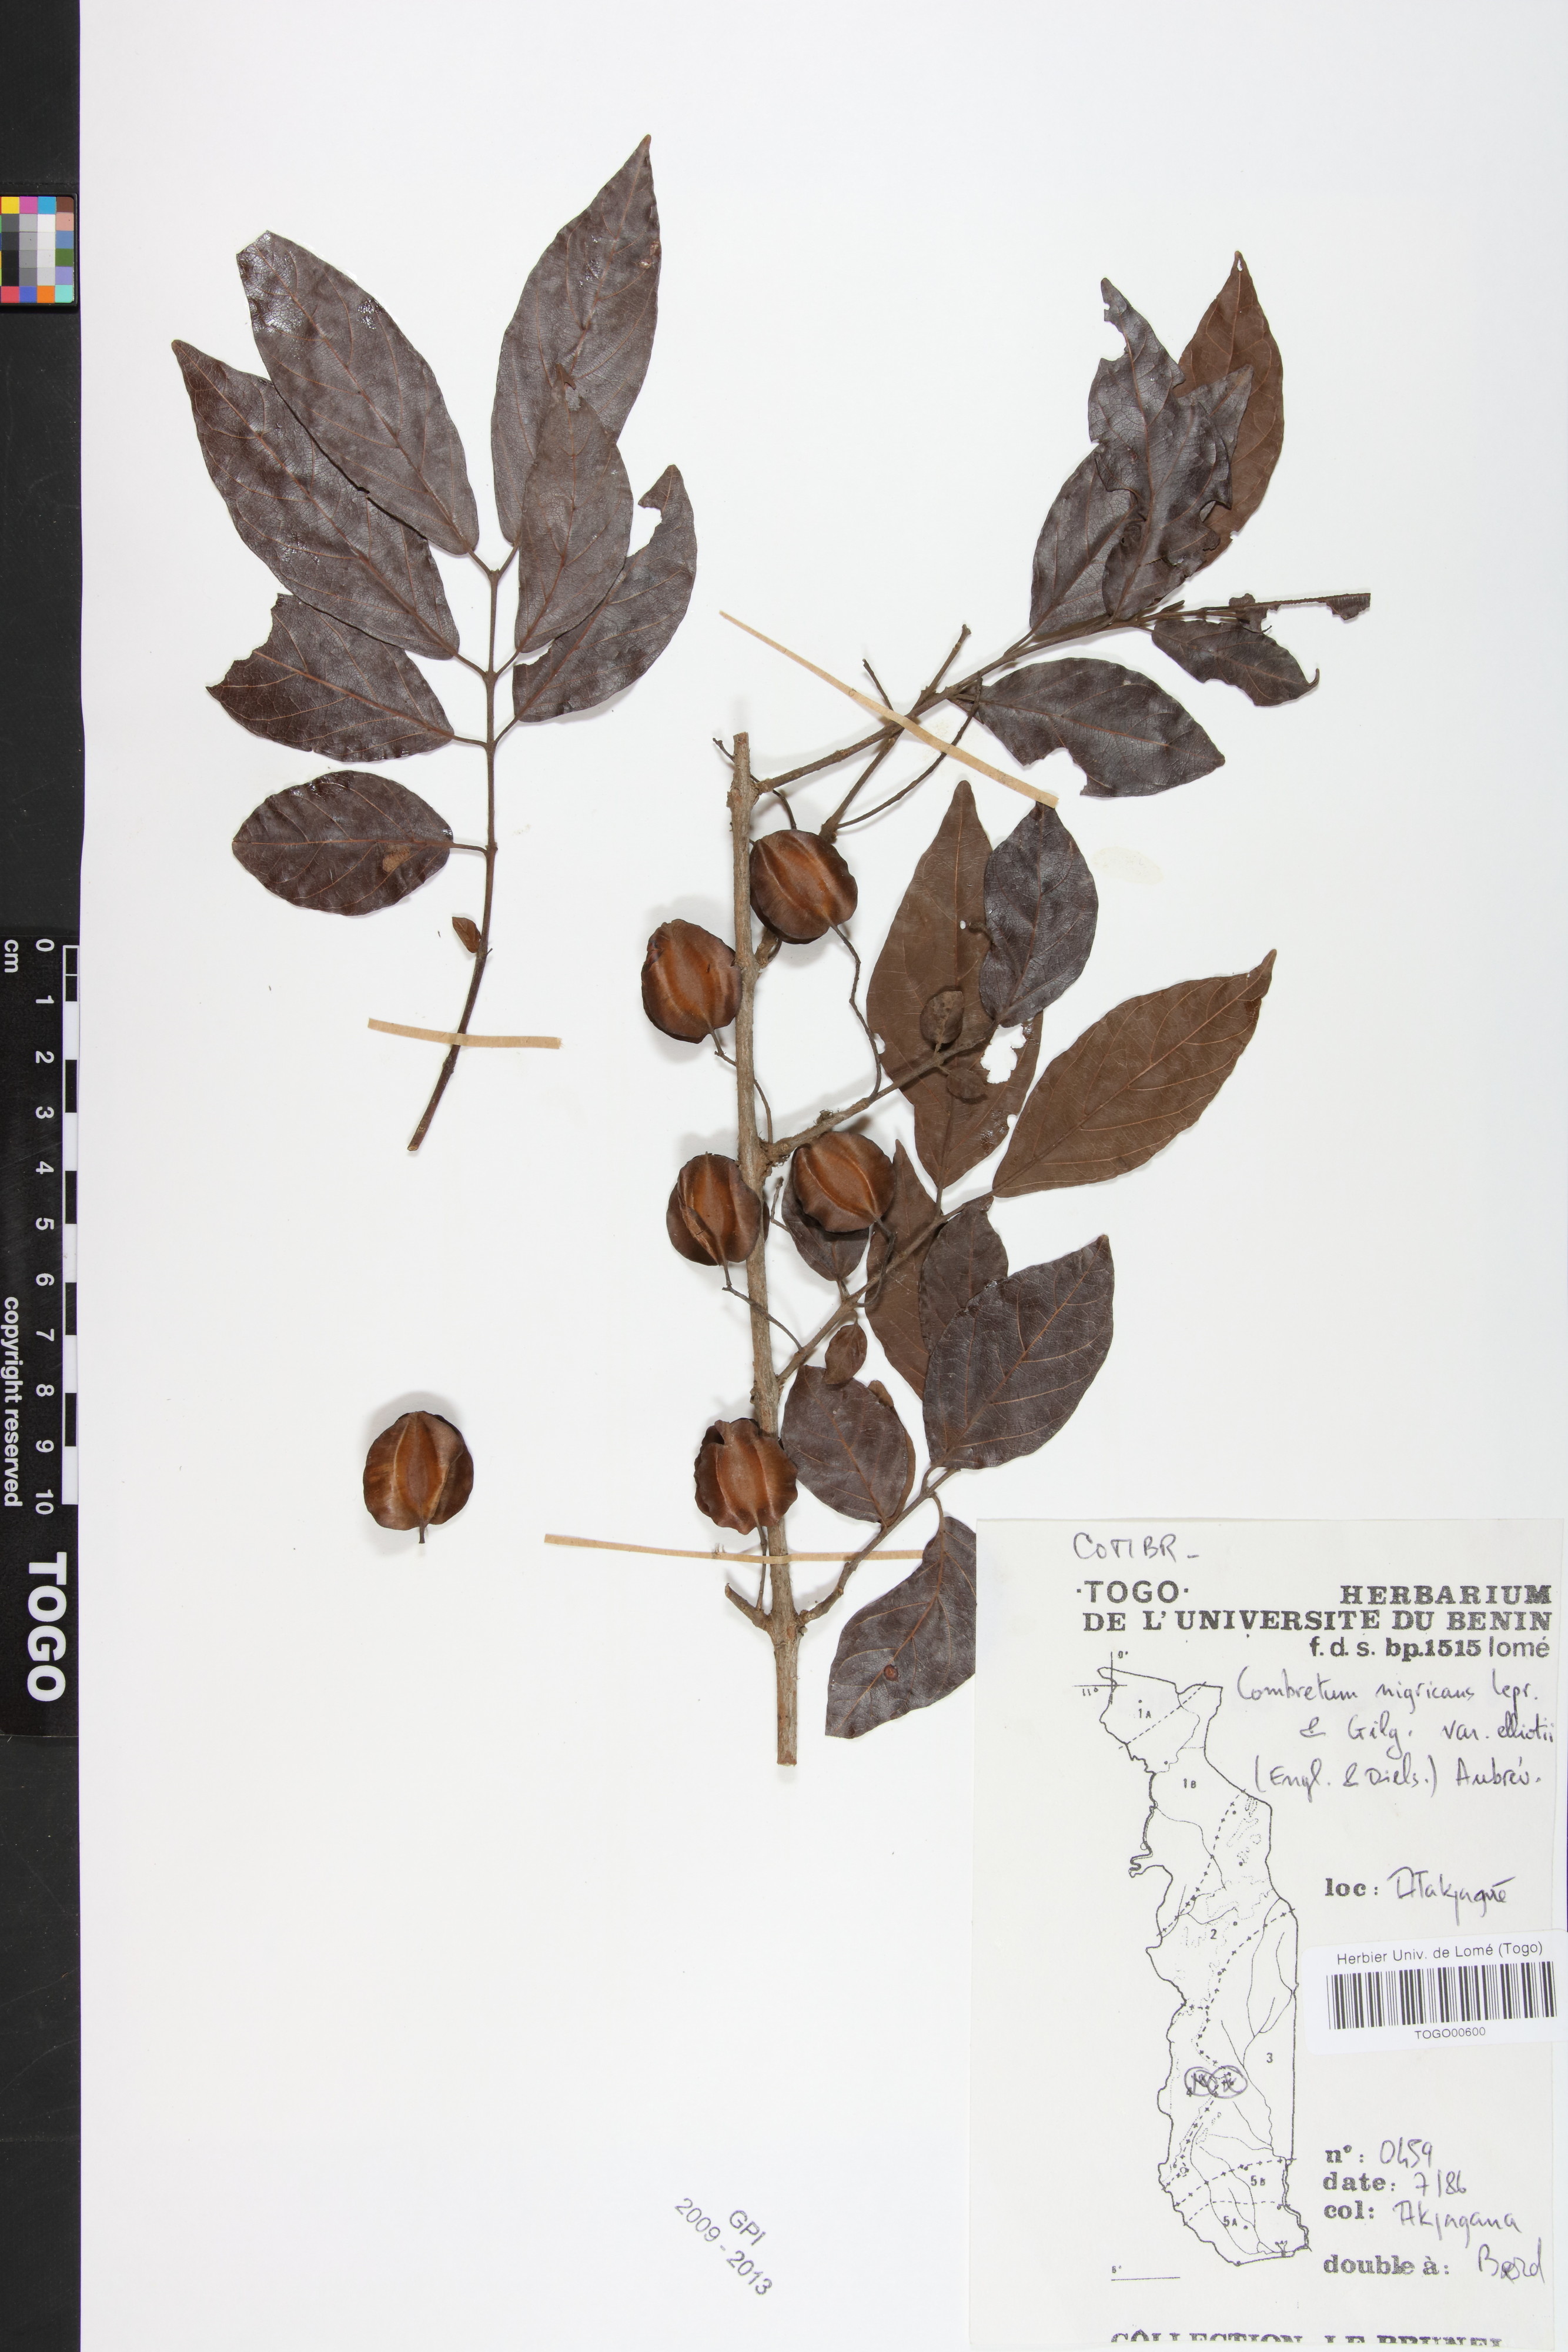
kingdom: Plantae
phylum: Tracheophyta
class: Magnoliopsida
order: Myrtales
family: Combretaceae
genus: Combretum
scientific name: Combretum nigricans
